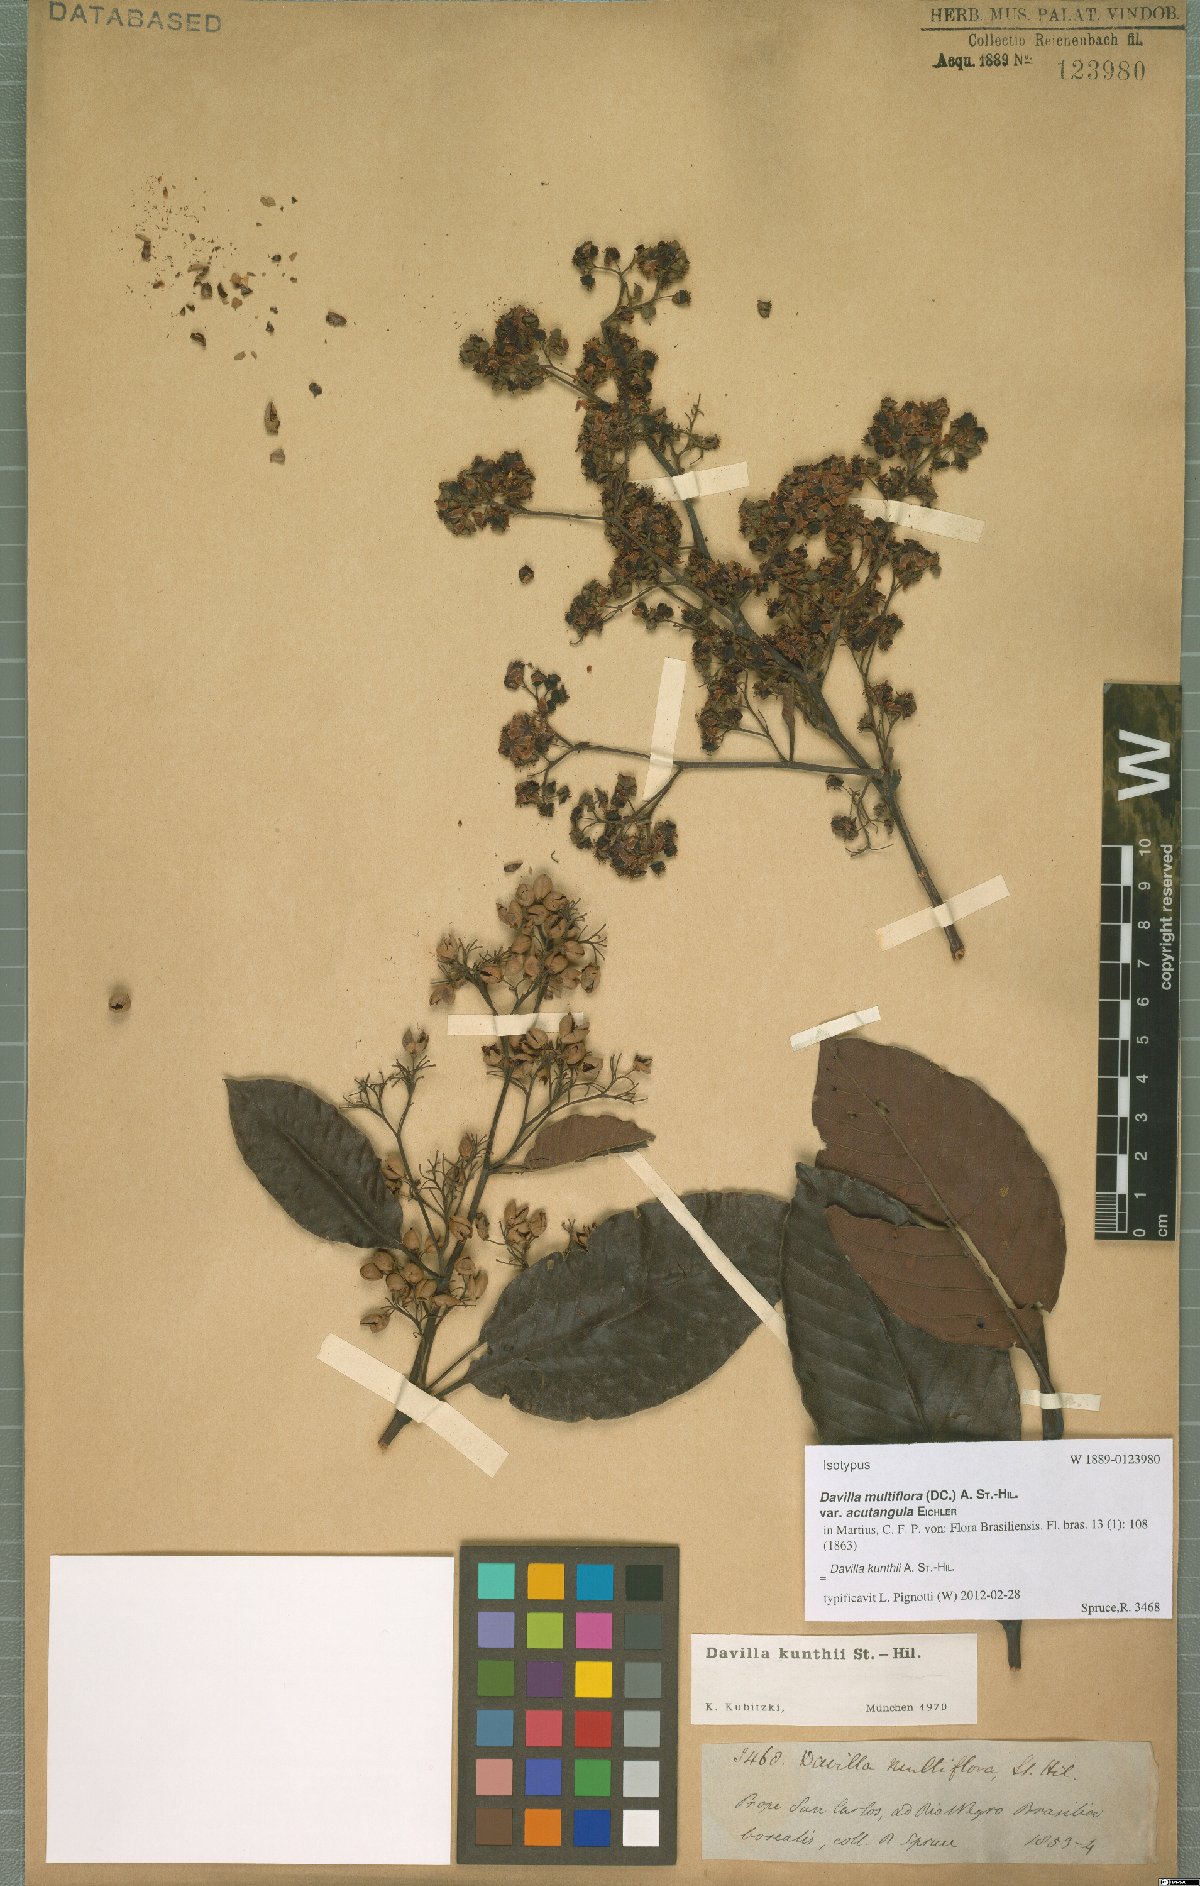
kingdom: Plantae
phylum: Tracheophyta
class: Magnoliopsida
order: Dilleniales
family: Dilleniaceae
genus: Davilla
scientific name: Davilla kunthii
